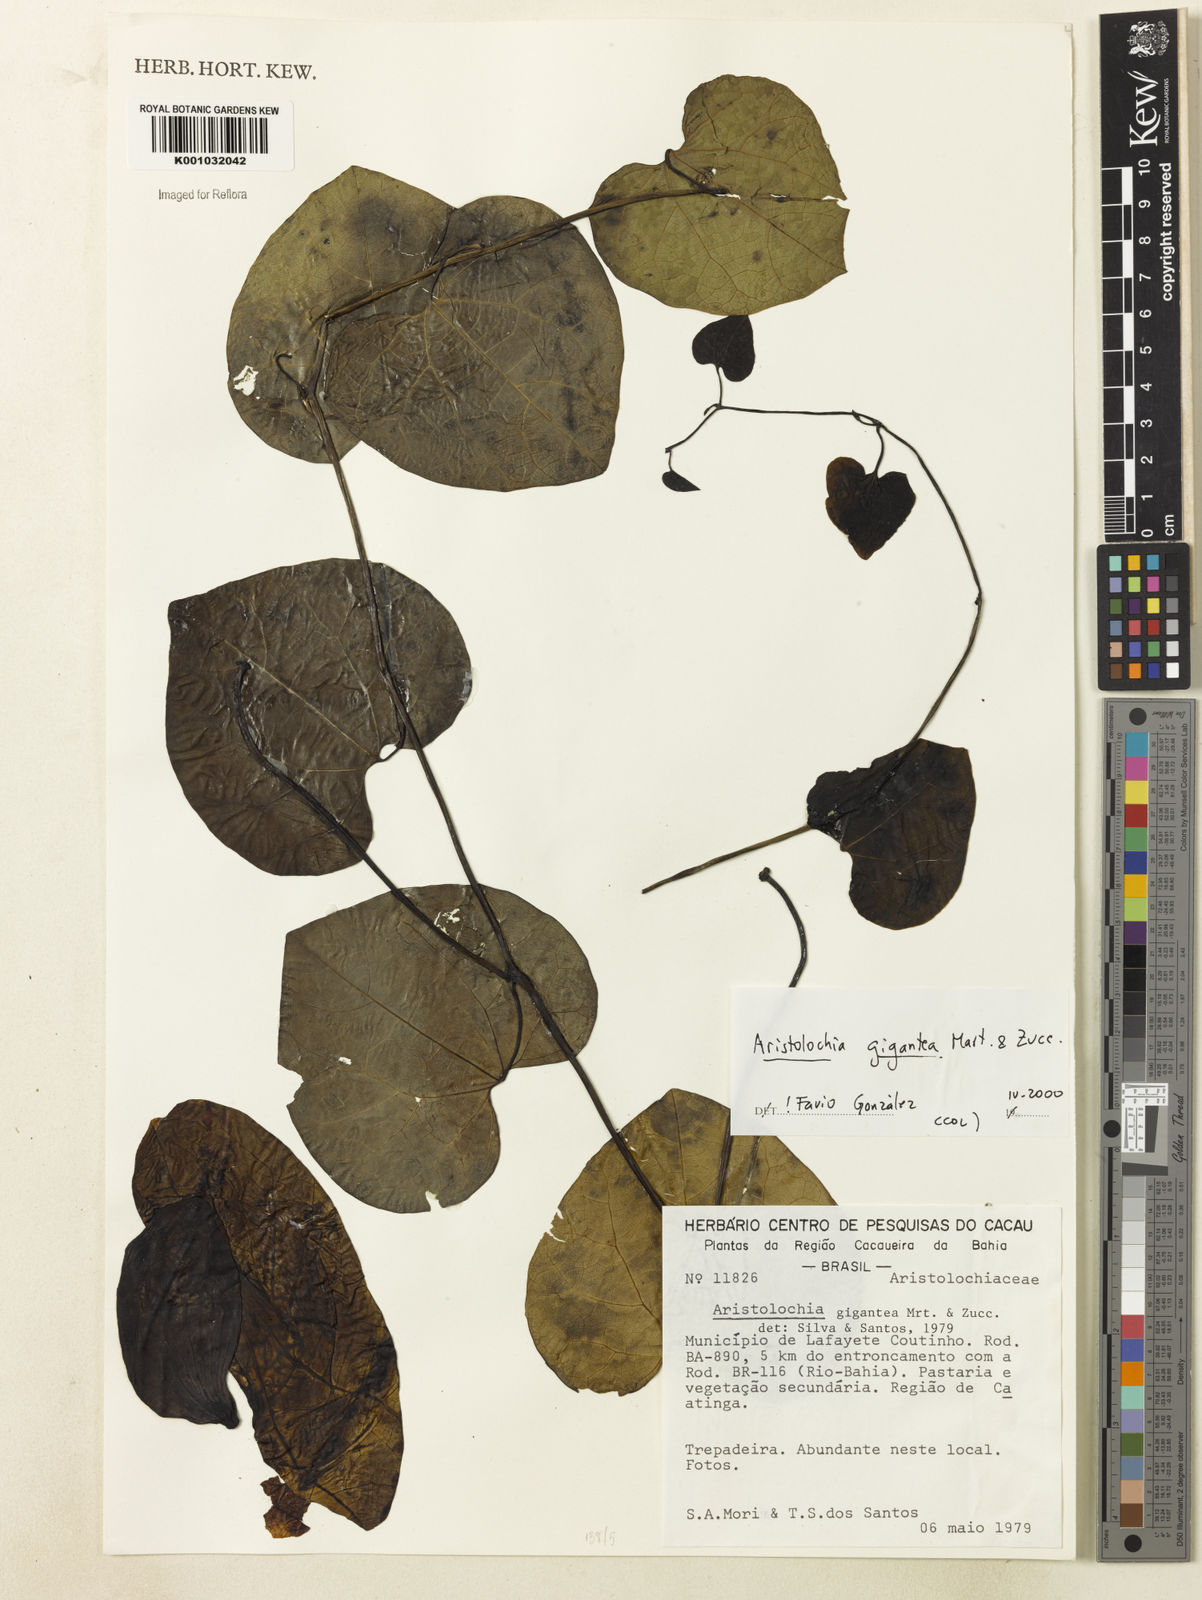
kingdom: Plantae
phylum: Tracheophyta
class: Magnoliopsida
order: Piperales
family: Aristolochiaceae
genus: Aristolochia
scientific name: Aristolochia gigantea
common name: Duckflower
